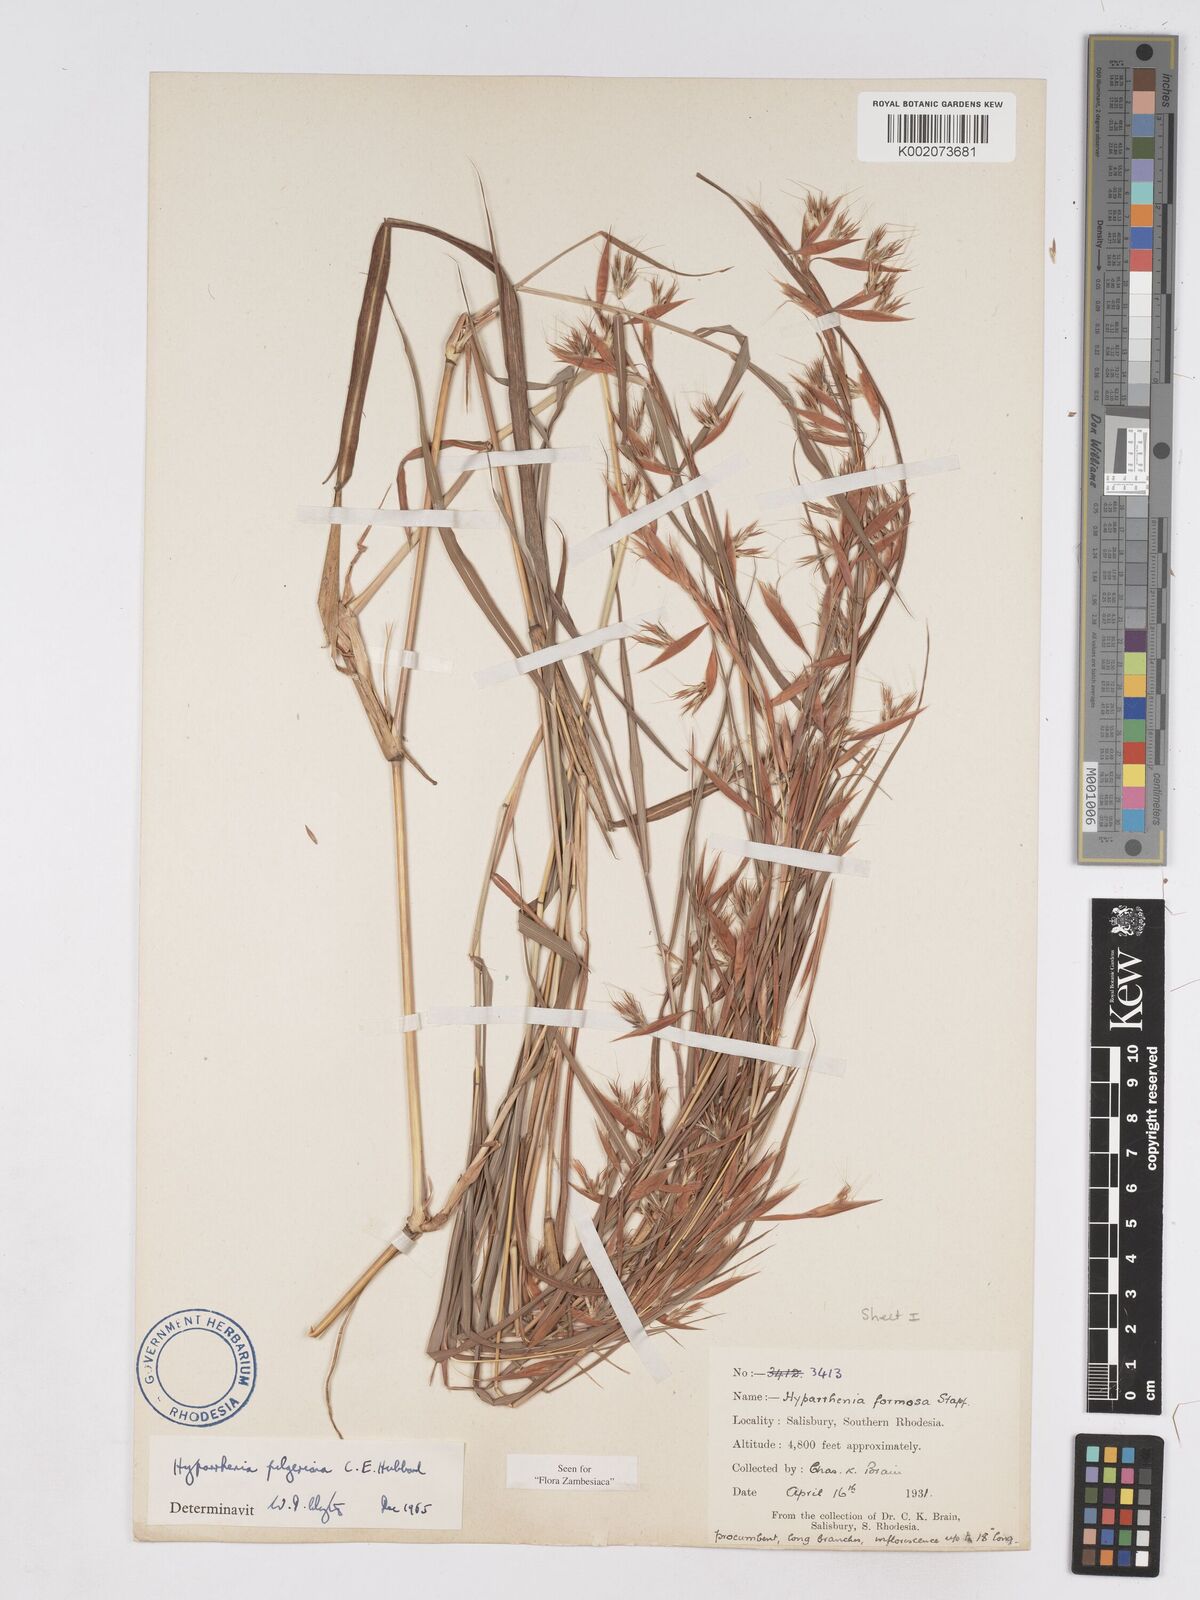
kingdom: Plantae
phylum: Tracheophyta
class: Liliopsida
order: Poales
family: Poaceae
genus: Hyparrhenia
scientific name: Hyparrhenia pilgeriana
